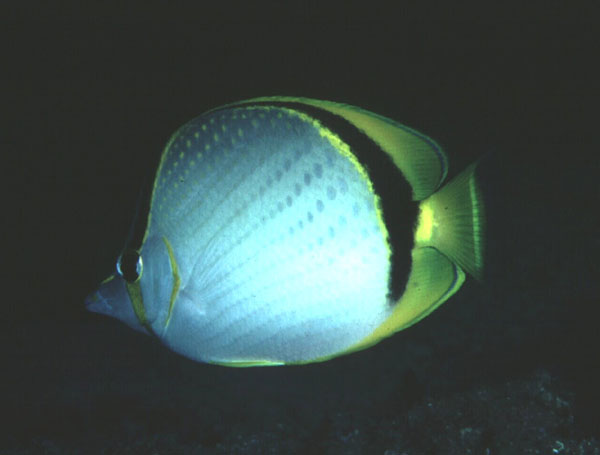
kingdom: Animalia
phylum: Chordata
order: Perciformes
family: Chaetodontidae
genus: Chaetodon
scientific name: Chaetodon selene
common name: Yellow-dotted butterflyfish
